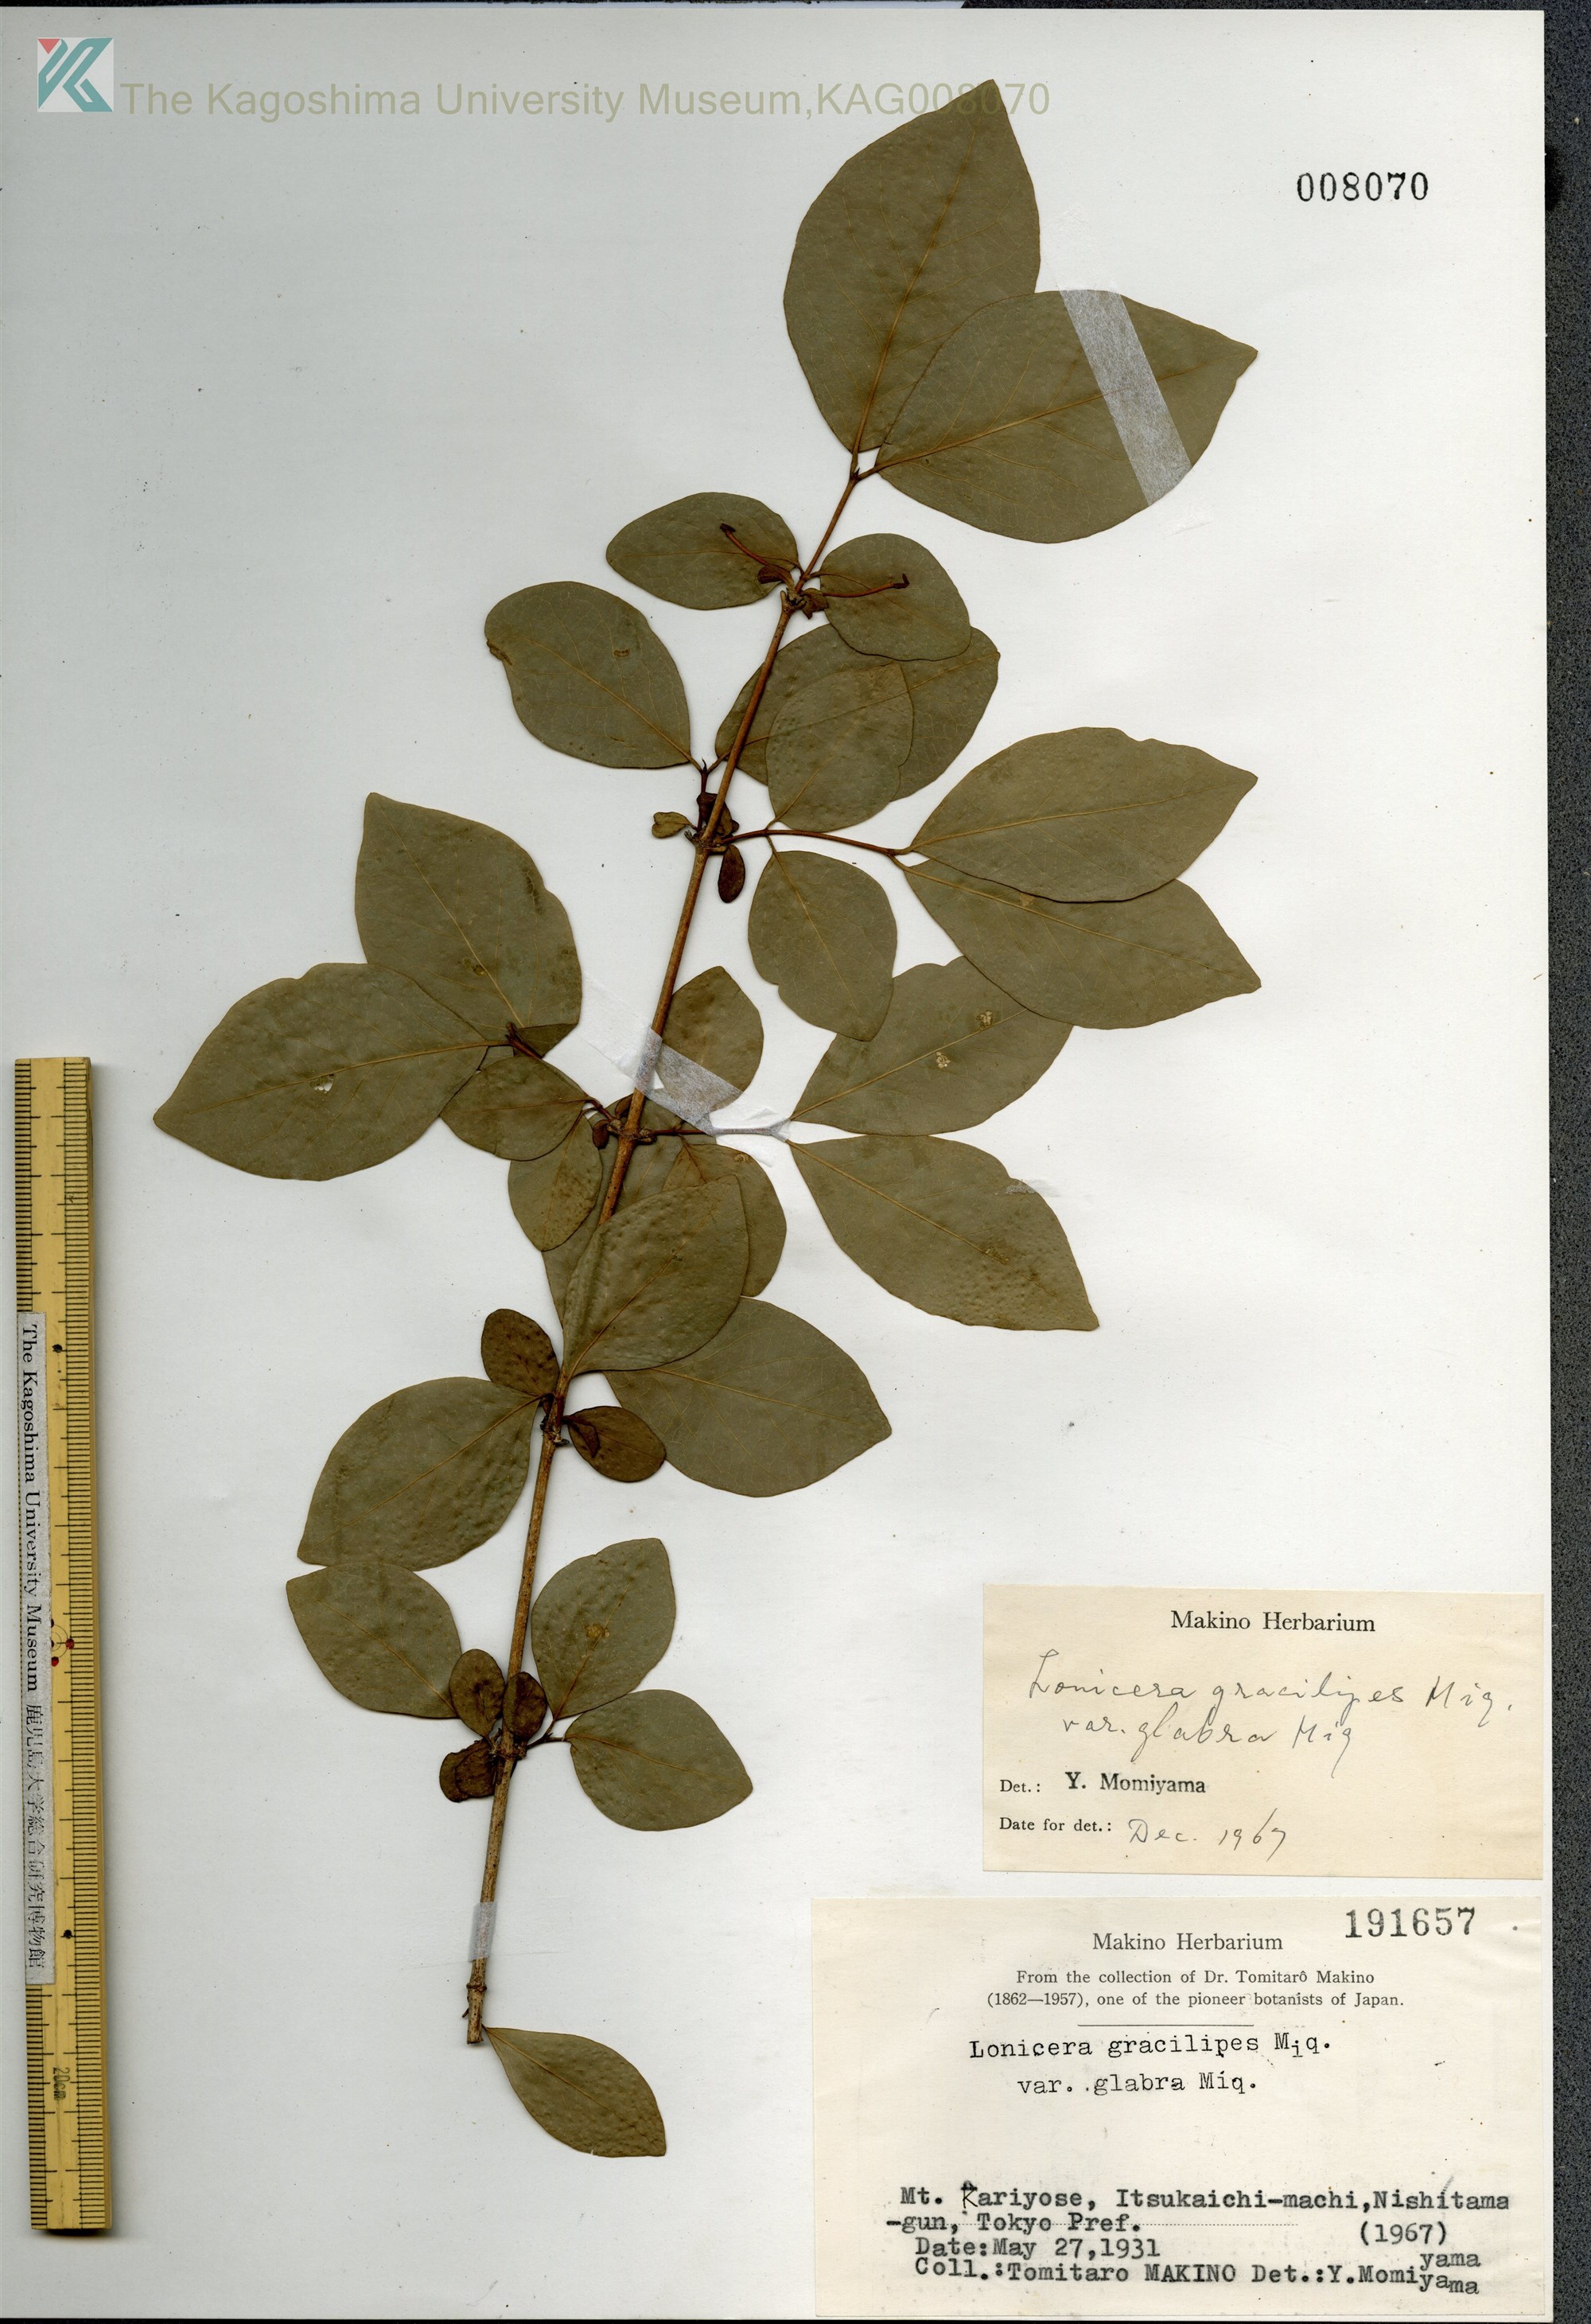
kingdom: Plantae
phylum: Tracheophyta
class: Magnoliopsida
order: Dipsacales
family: Caprifoliaceae
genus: Lonicera
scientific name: Lonicera gracilipes
